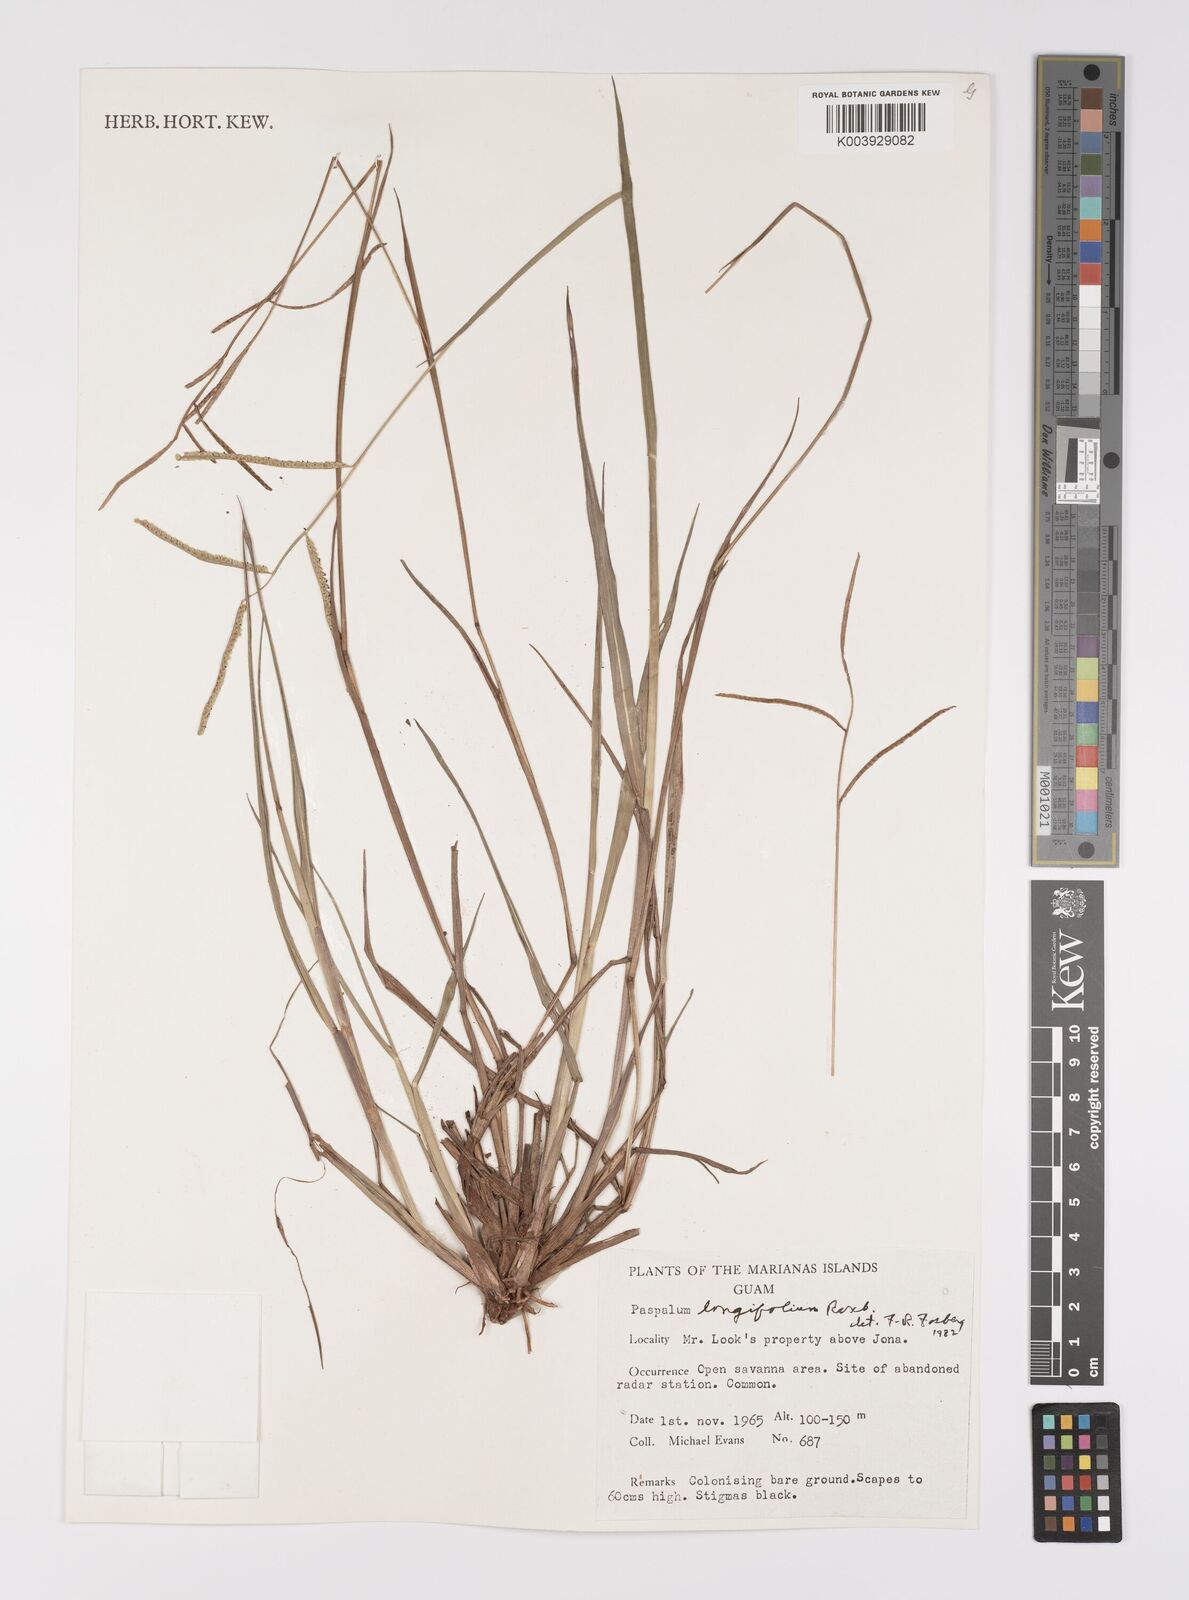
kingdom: Plantae
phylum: Tracheophyta
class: Liliopsida
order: Poales
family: Poaceae
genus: Paspalum
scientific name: Paspalum scrobiculatum
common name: Kodo millet
